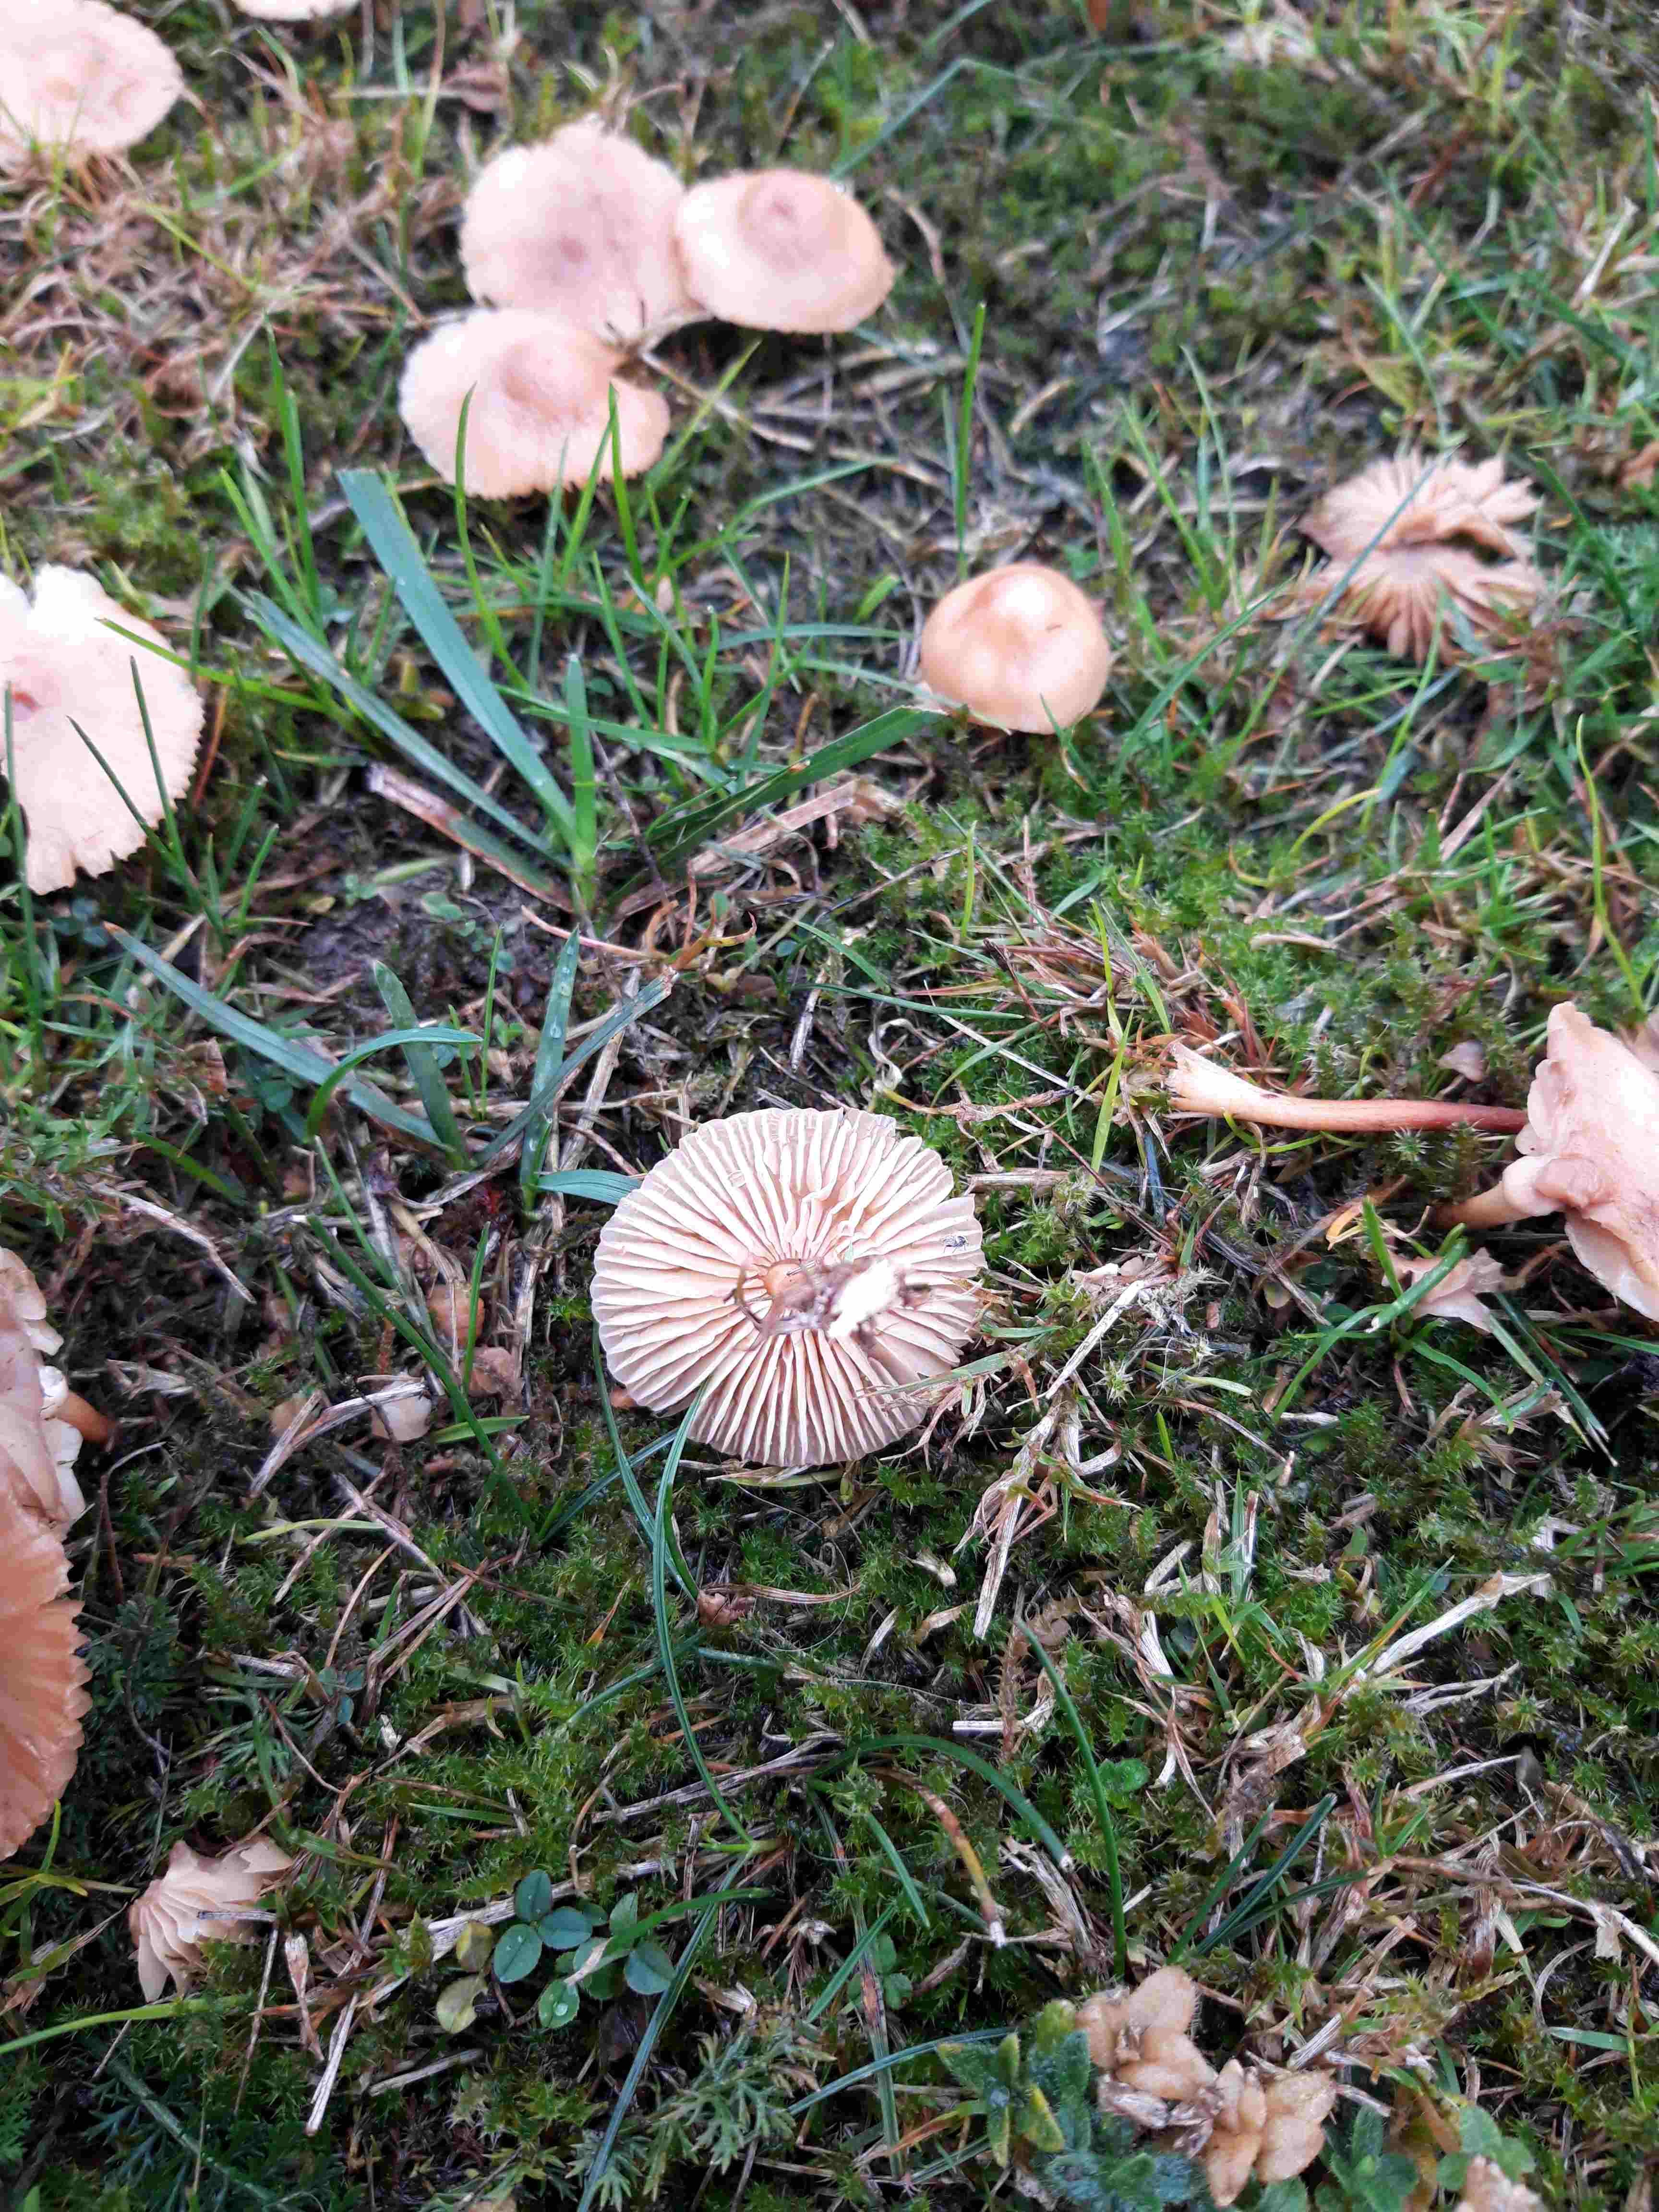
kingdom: Fungi
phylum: Basidiomycota
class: Agaricomycetes
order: Agaricales
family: Marasmiaceae
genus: Marasmius
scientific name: Marasmius oreades
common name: elledans-bruskhat
